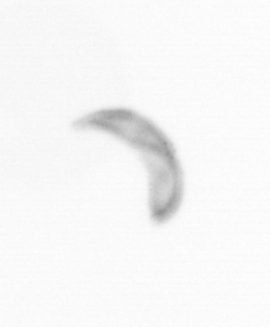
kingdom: Chromista
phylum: Ochrophyta
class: Bacillariophyceae
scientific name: Bacillariophyceae
